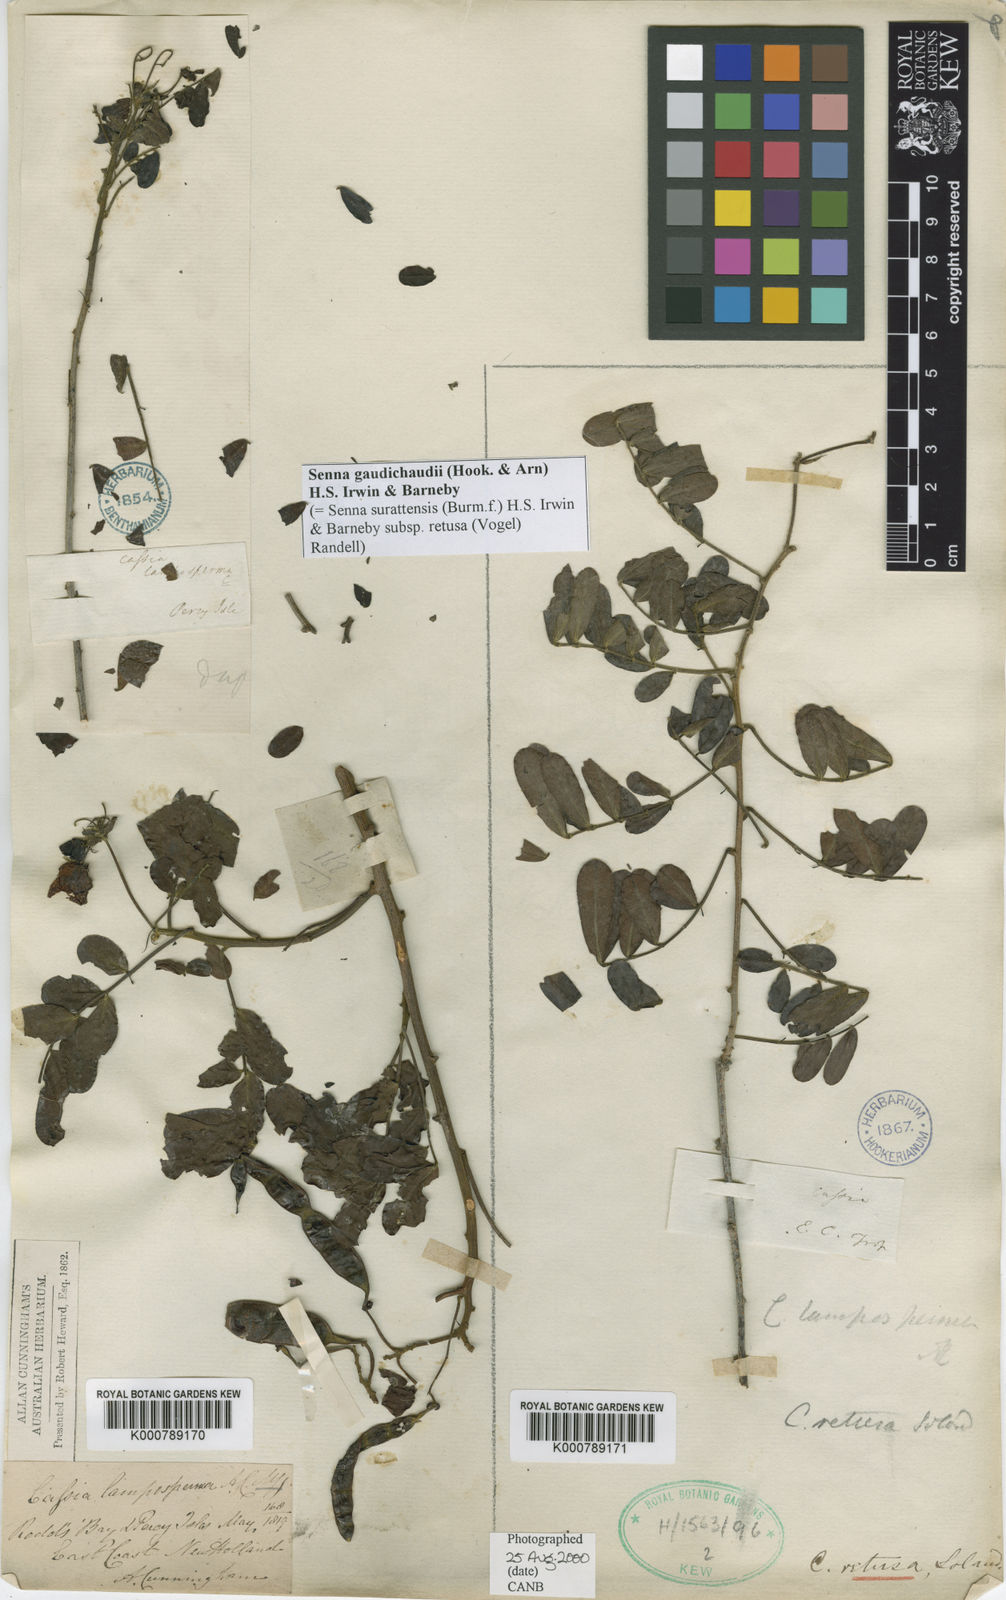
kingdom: Plantae
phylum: Tracheophyta
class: Magnoliopsida
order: Fabales
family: Fabaceae
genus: Senna
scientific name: Senna gaudichaudii
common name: Climbing cassia
